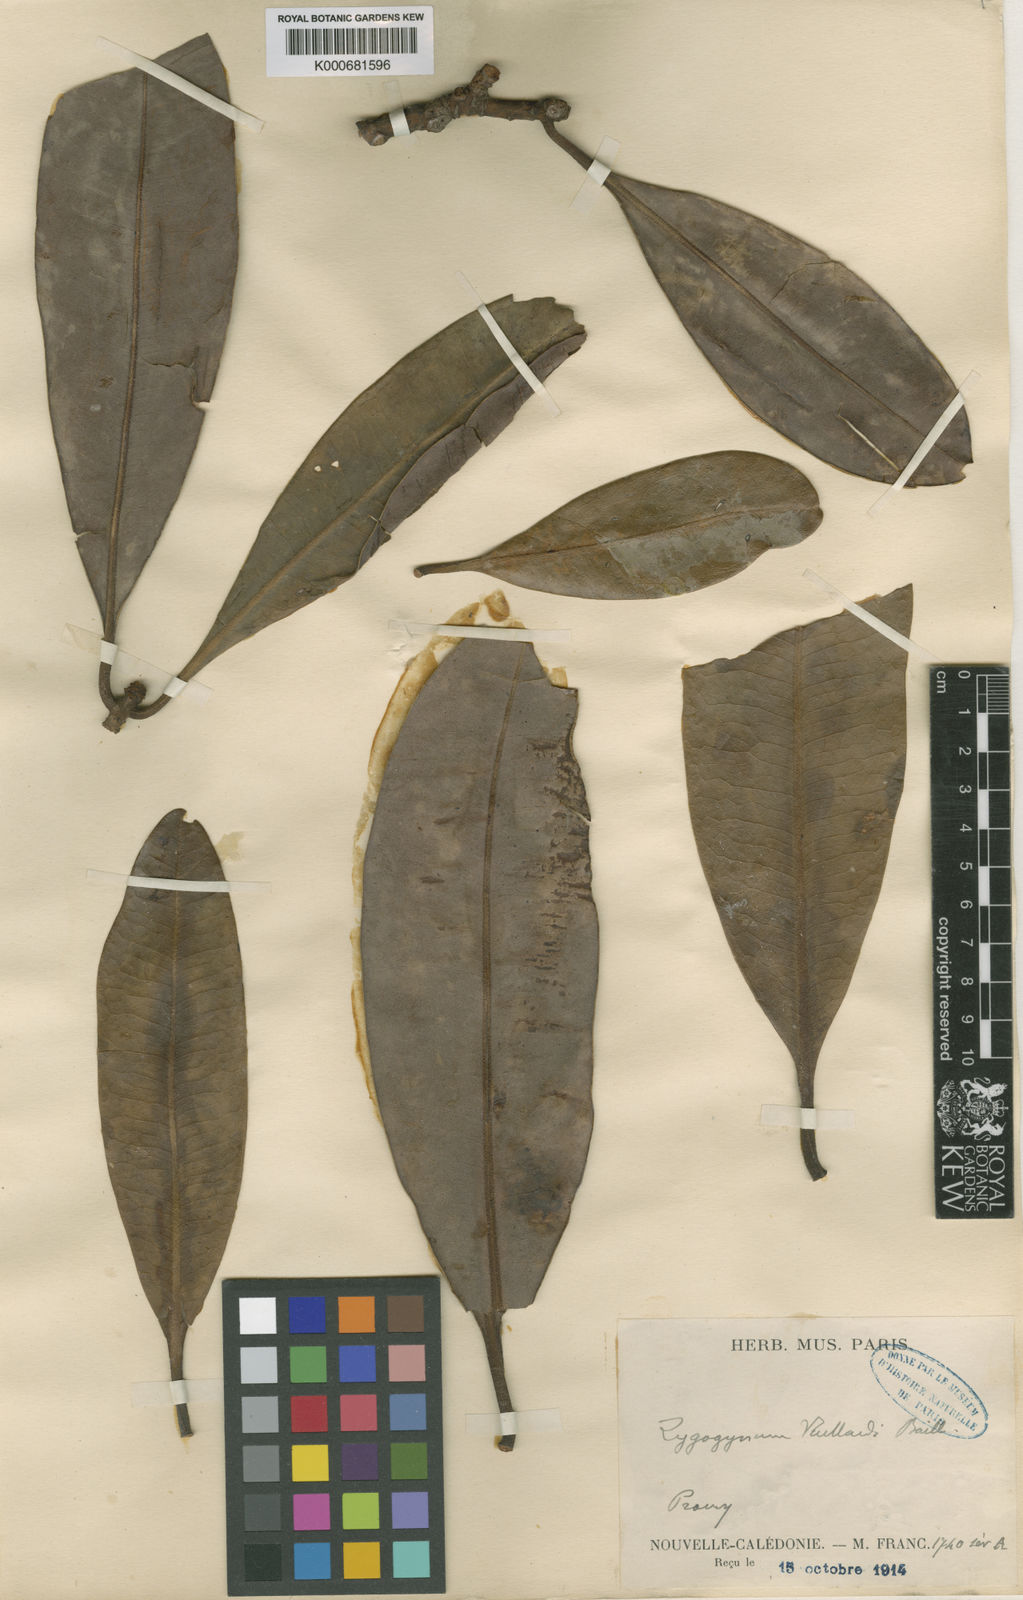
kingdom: Plantae
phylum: Tracheophyta
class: Magnoliopsida
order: Canellales
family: Winteraceae
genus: Zygogynum
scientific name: Zygogynum acsmithii
